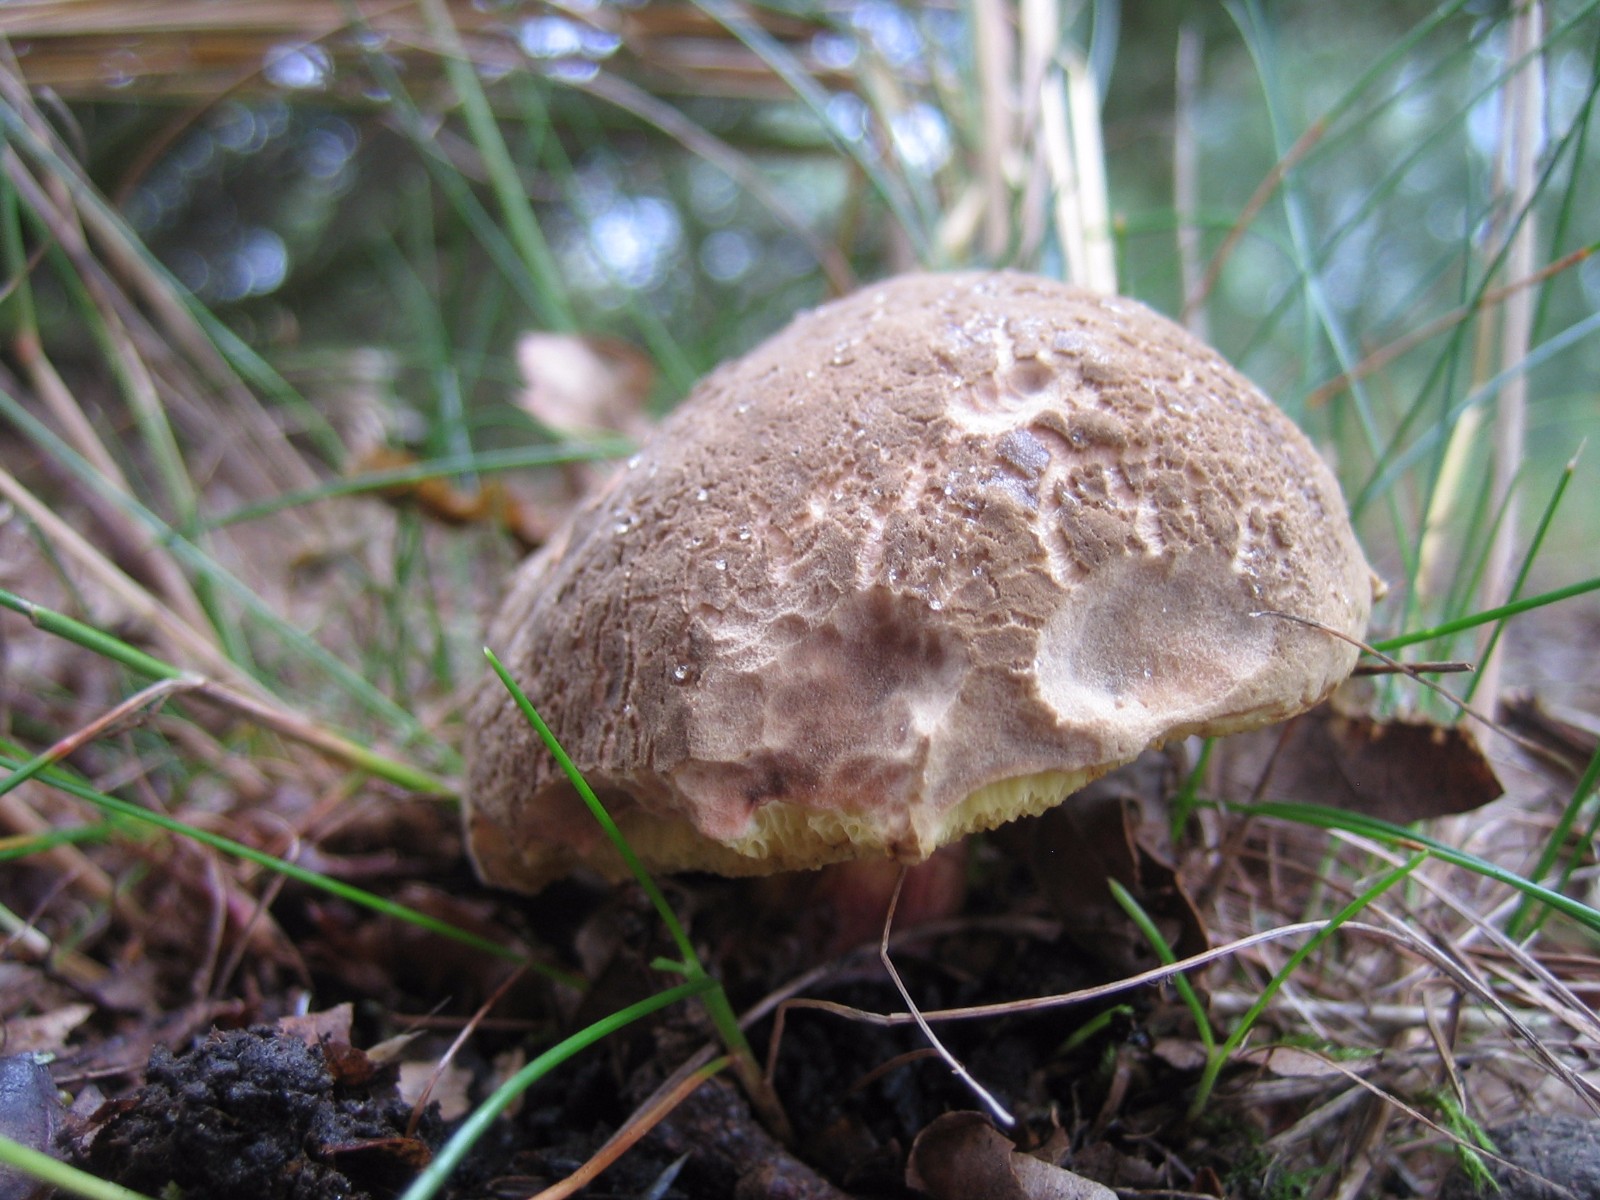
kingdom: Fungi
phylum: Basidiomycota
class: Agaricomycetes
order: Boletales
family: Boletaceae
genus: Xerocomellus
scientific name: Xerocomellus chrysenteron
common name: rødsprukken rørhat
